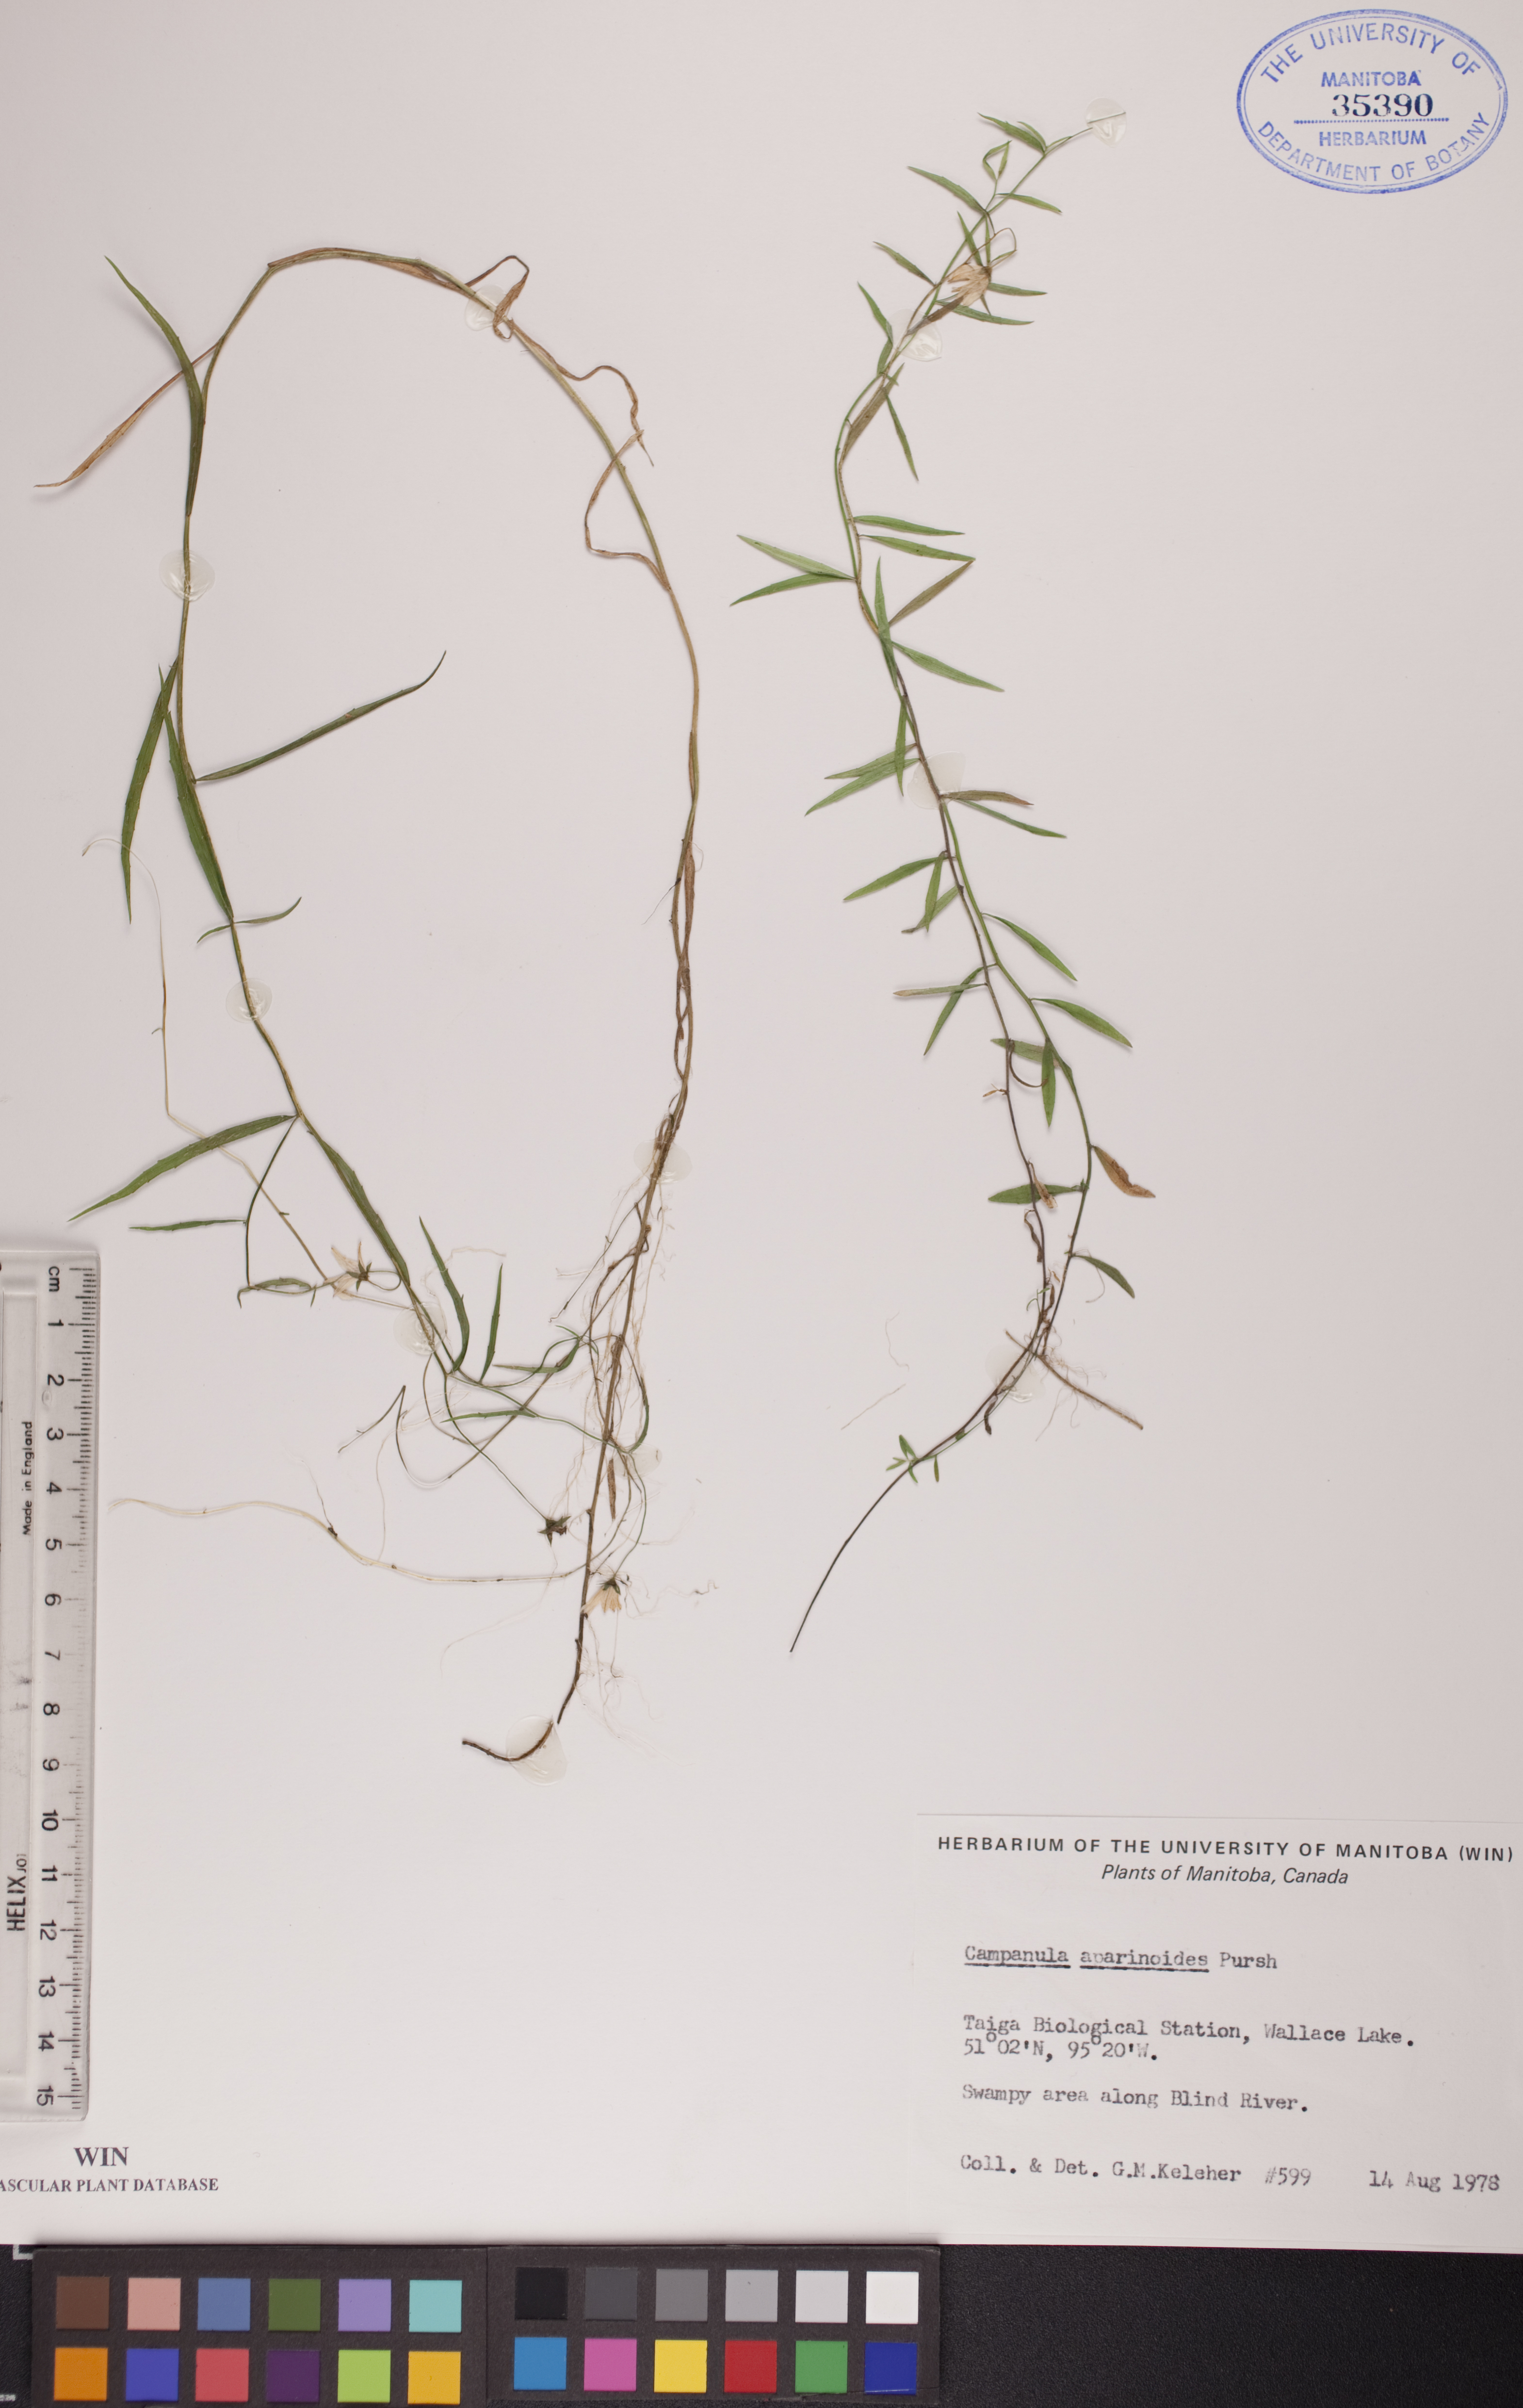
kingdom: Plantae
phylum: Tracheophyta
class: Magnoliopsida
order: Asterales
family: Campanulaceae
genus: Palustricodon
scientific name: Palustricodon aparinoides
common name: Bedstraw bellflower
